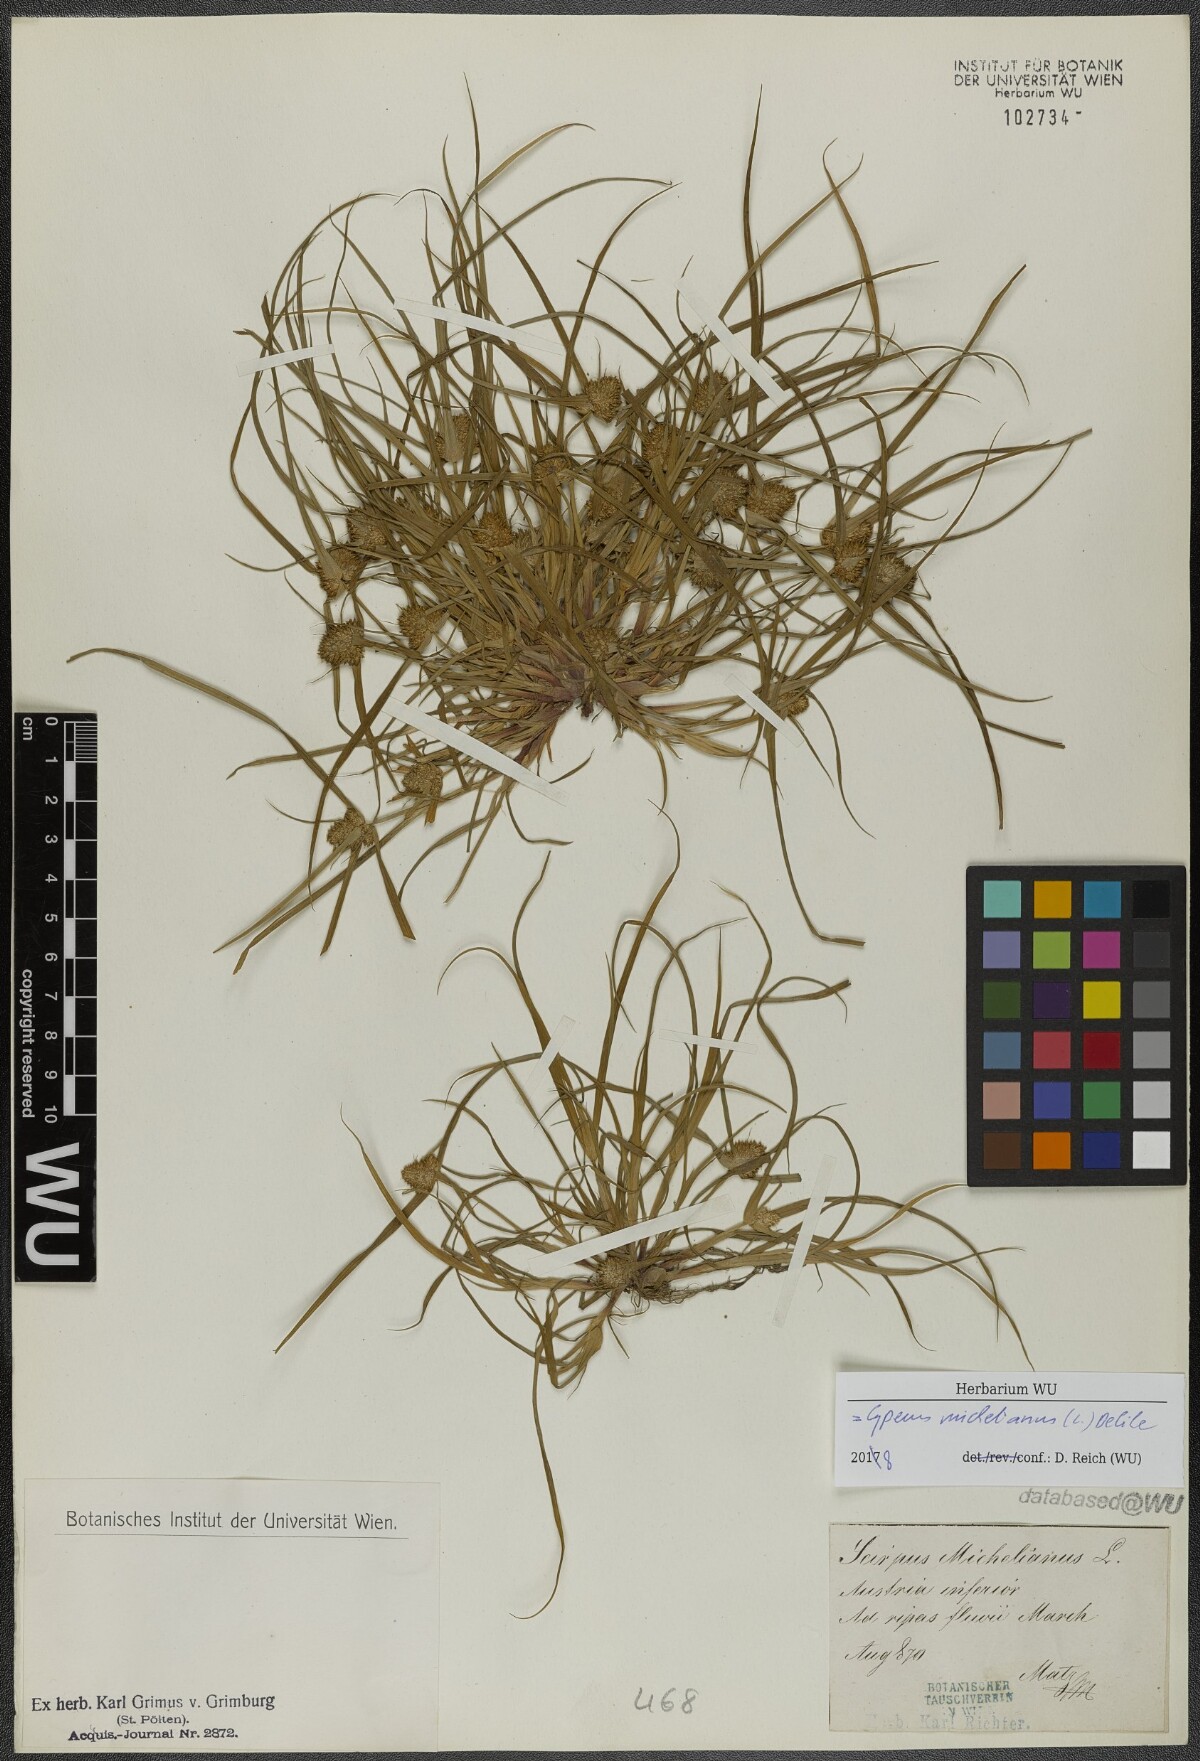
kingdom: Plantae
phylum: Tracheophyta
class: Liliopsida
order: Poales
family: Cyperaceae
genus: Cyperus
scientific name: Cyperus michelianus
